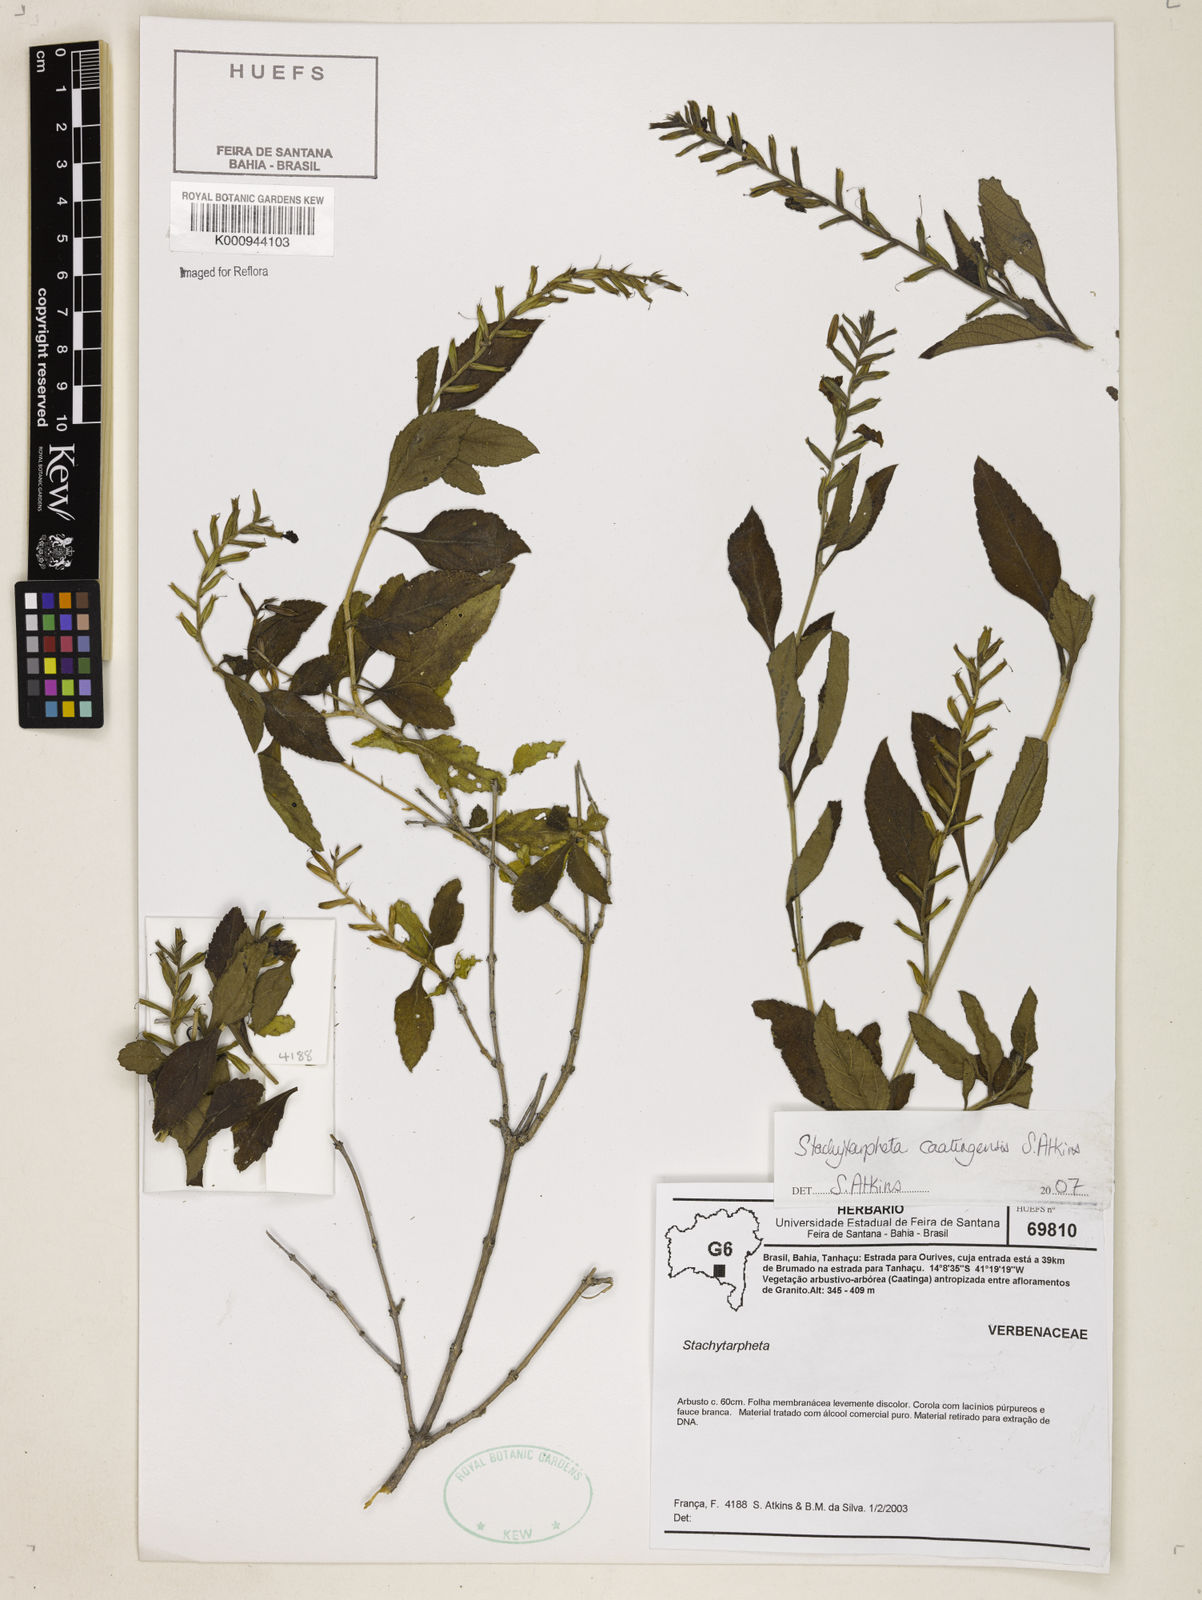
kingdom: Plantae
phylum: Tracheophyta
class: Magnoliopsida
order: Lamiales
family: Verbenaceae
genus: Stachytarpheta
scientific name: Stachytarpheta brasiliensis
